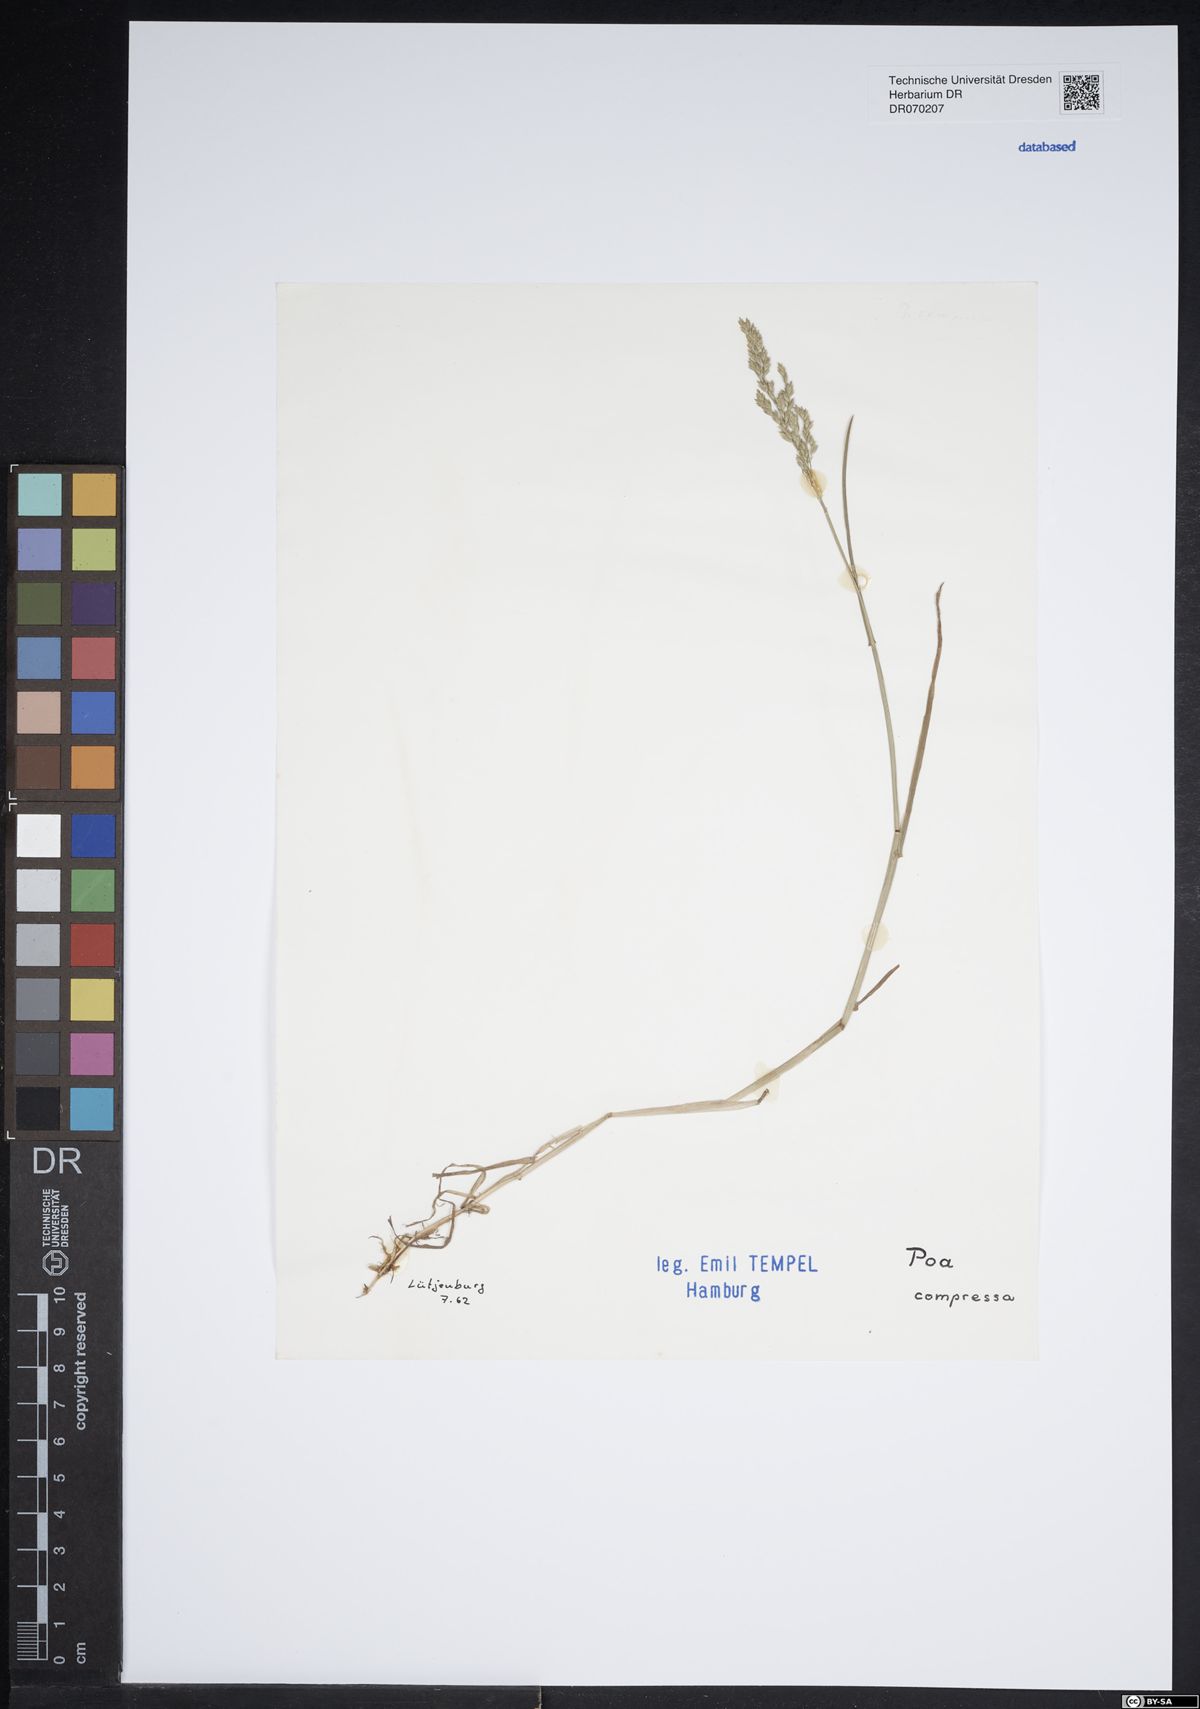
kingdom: Plantae
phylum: Tracheophyta
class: Liliopsida
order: Poales
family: Poaceae
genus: Poa
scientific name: Poa compressa
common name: Canada bluegrass
